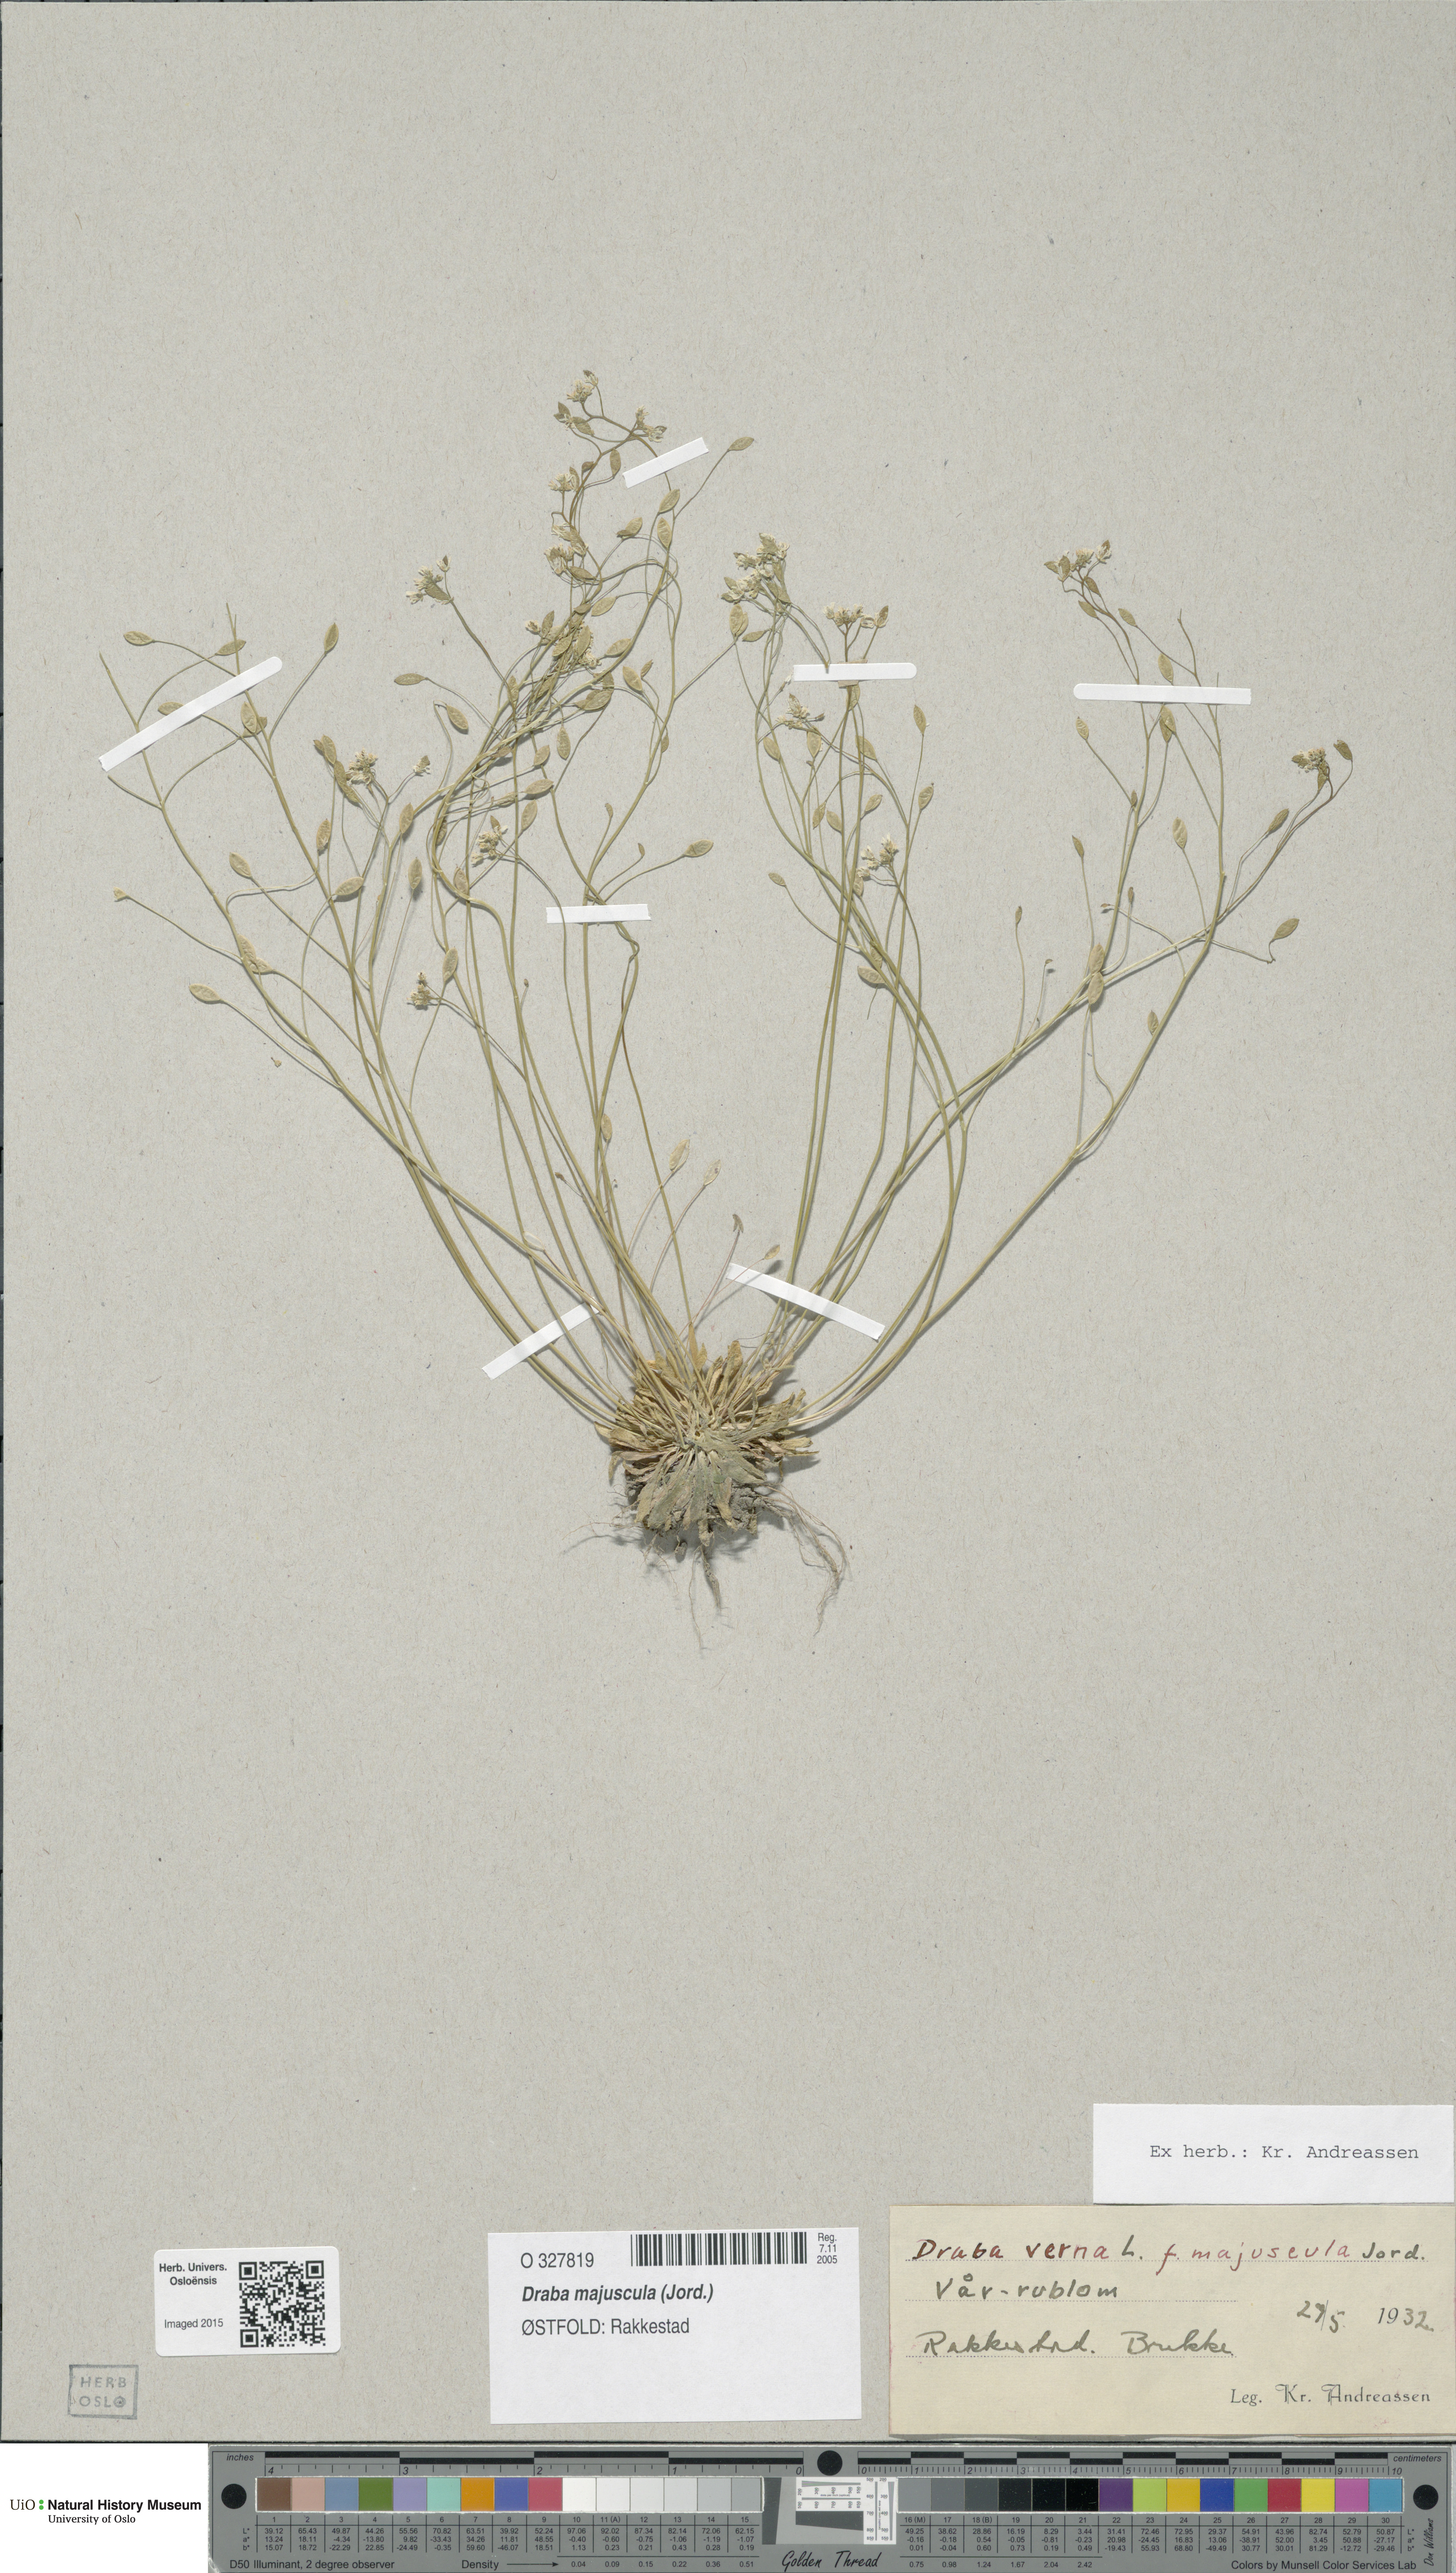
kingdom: Plantae
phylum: Tracheophyta
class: Magnoliopsida
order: Brassicales
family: Brassicaceae
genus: Draba
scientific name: Draba verna
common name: Spring draba
